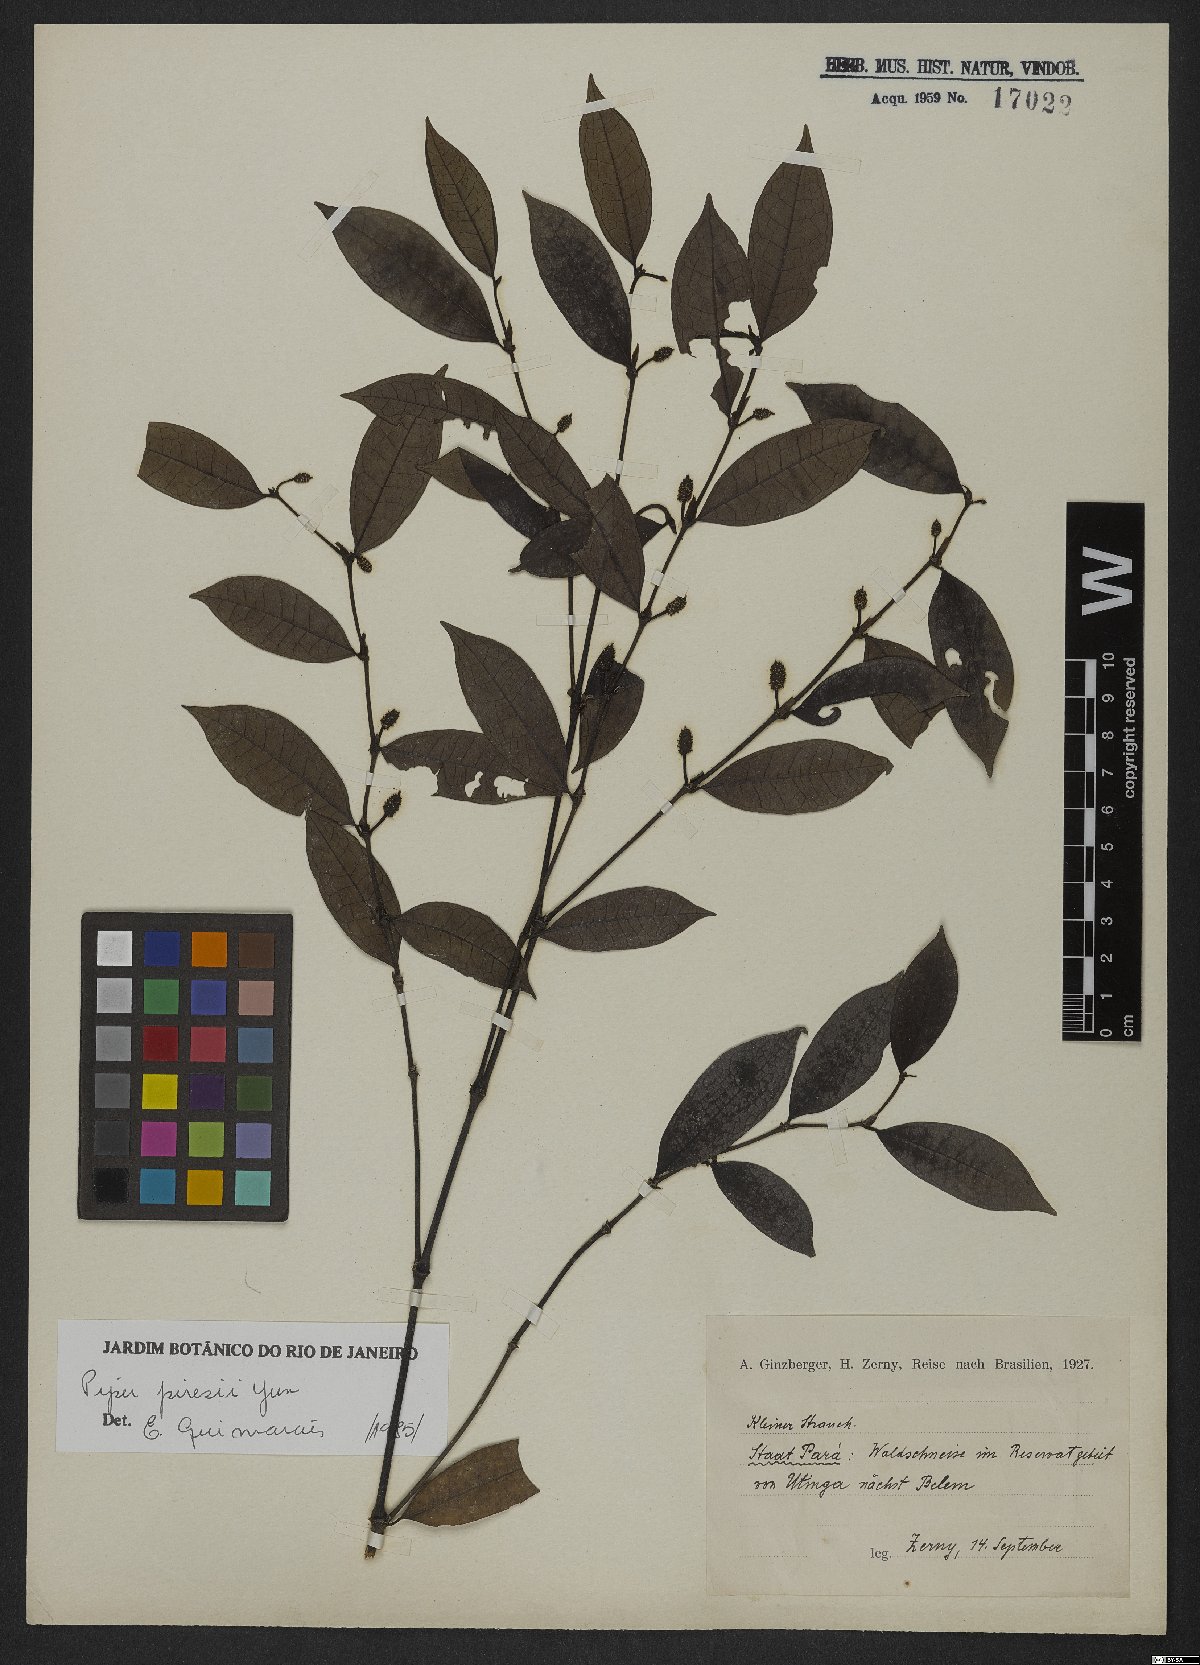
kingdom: Plantae
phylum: Tracheophyta
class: Magnoliopsida
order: Piperales
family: Piperaceae
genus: Piper
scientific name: Piper piresii
